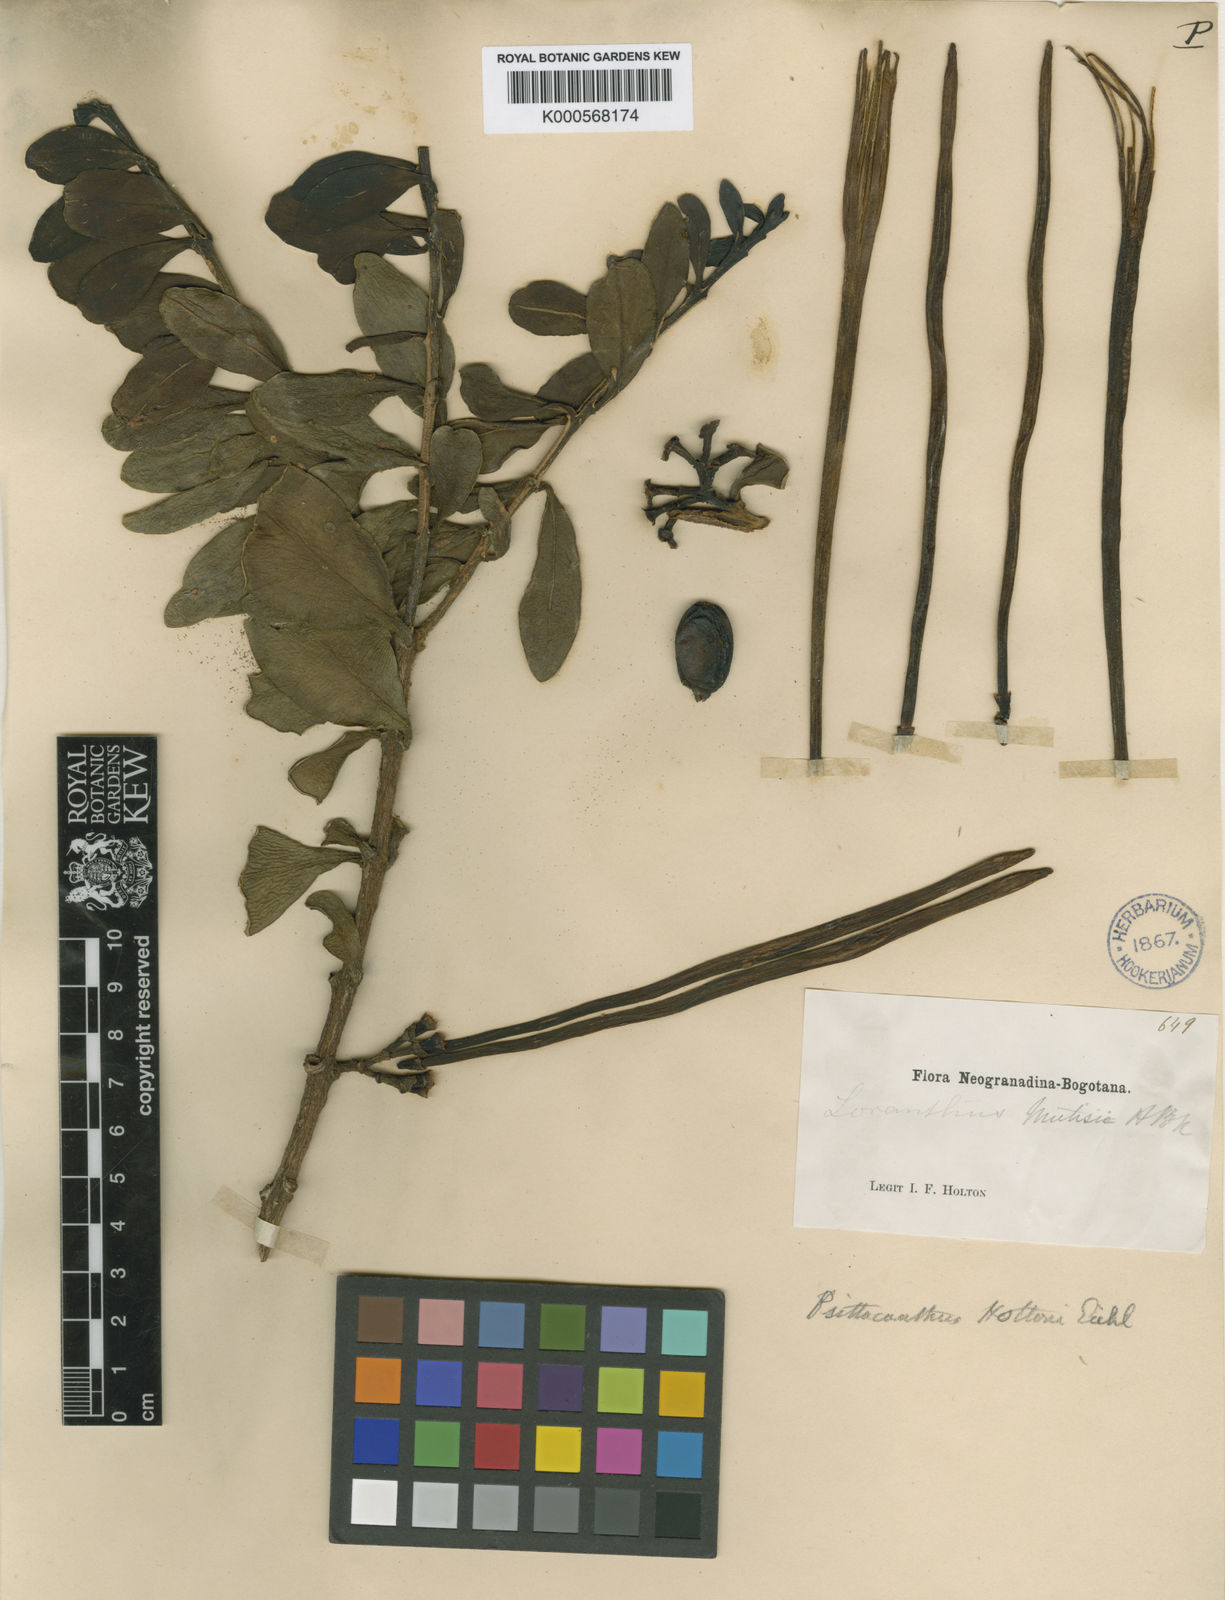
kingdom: Plantae
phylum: Tracheophyta
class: Magnoliopsida
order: Santalales
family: Loranthaceae
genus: Aetanthus
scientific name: Aetanthus mutisii
